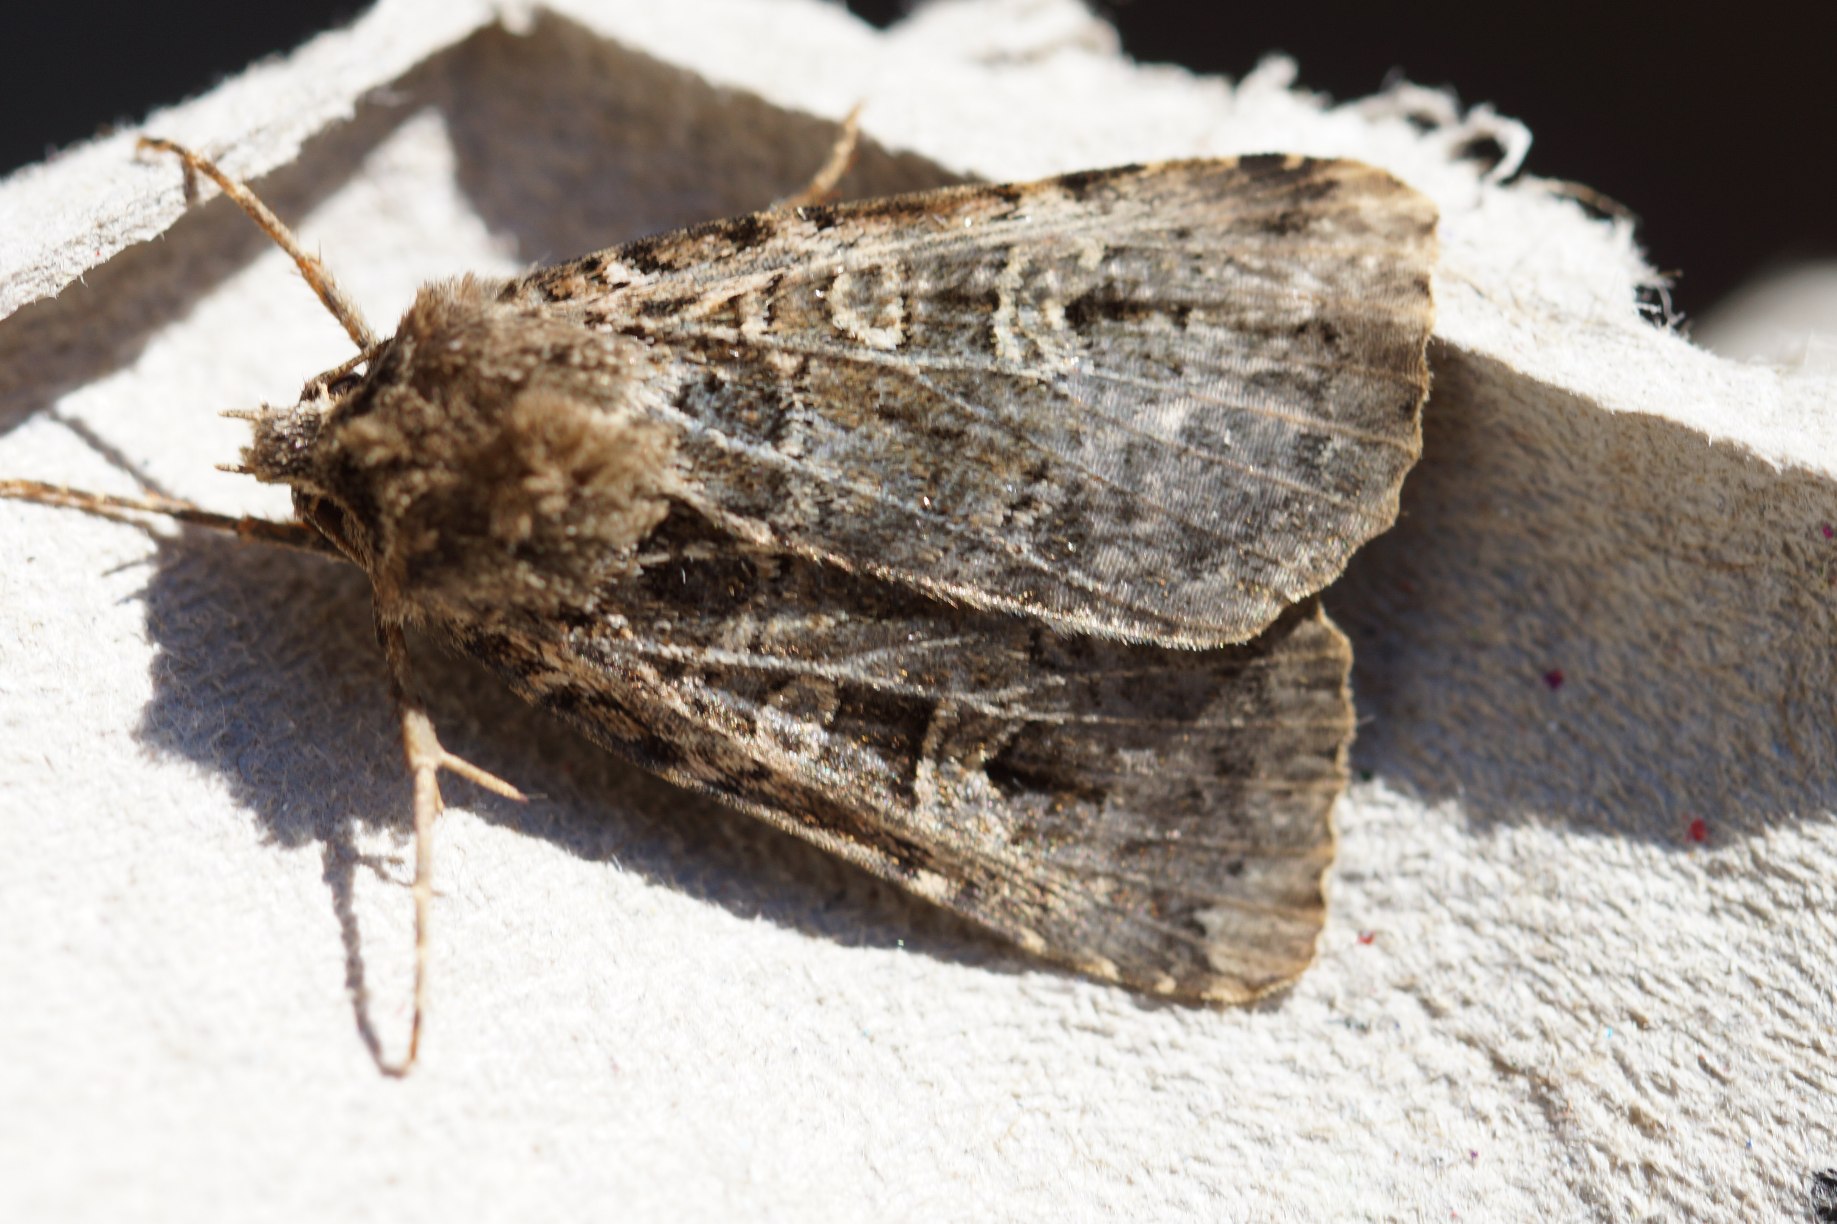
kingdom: Animalia
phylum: Arthropoda
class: Insecta
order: Lepidoptera
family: Noctuidae
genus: Naenia
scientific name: Naenia typica
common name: Netugle
